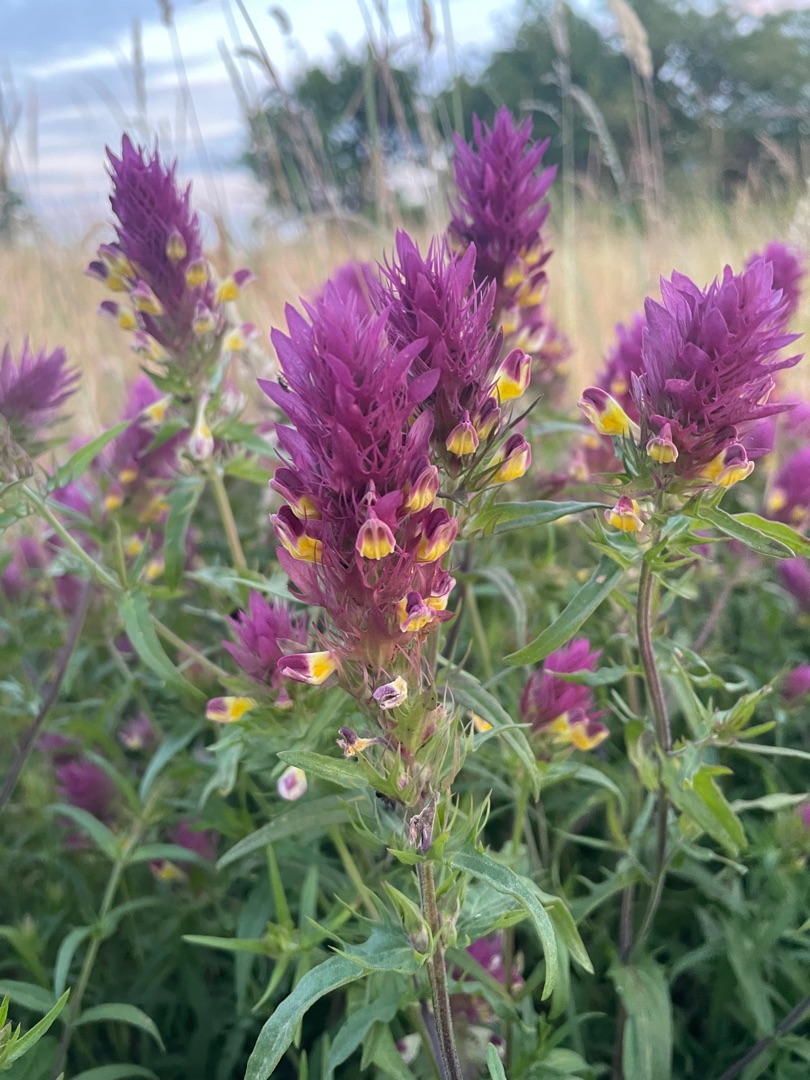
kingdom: Plantae
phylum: Tracheophyta
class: Magnoliopsida
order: Lamiales
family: Orobanchaceae
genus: Melampyrum
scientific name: Melampyrum arvense
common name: Ager-kohvede
